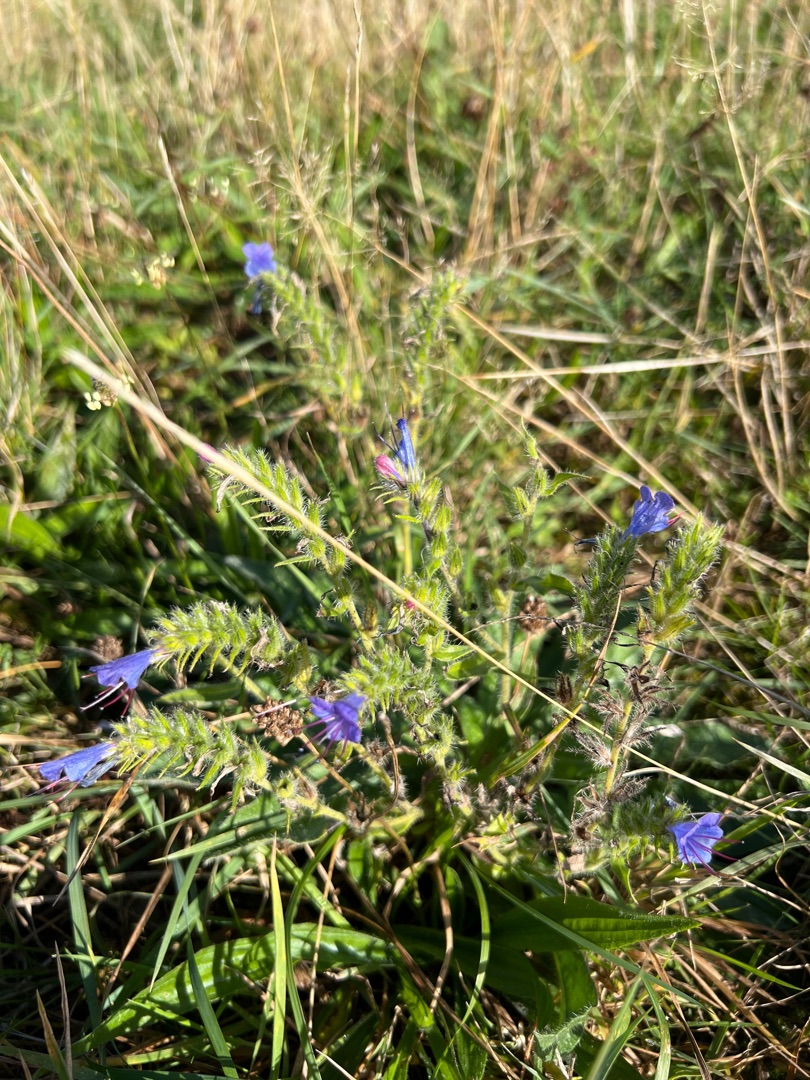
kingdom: Plantae
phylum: Tracheophyta
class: Magnoliopsida
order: Boraginales
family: Boraginaceae
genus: Echium
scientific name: Echium vulgare
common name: Slangehoved
